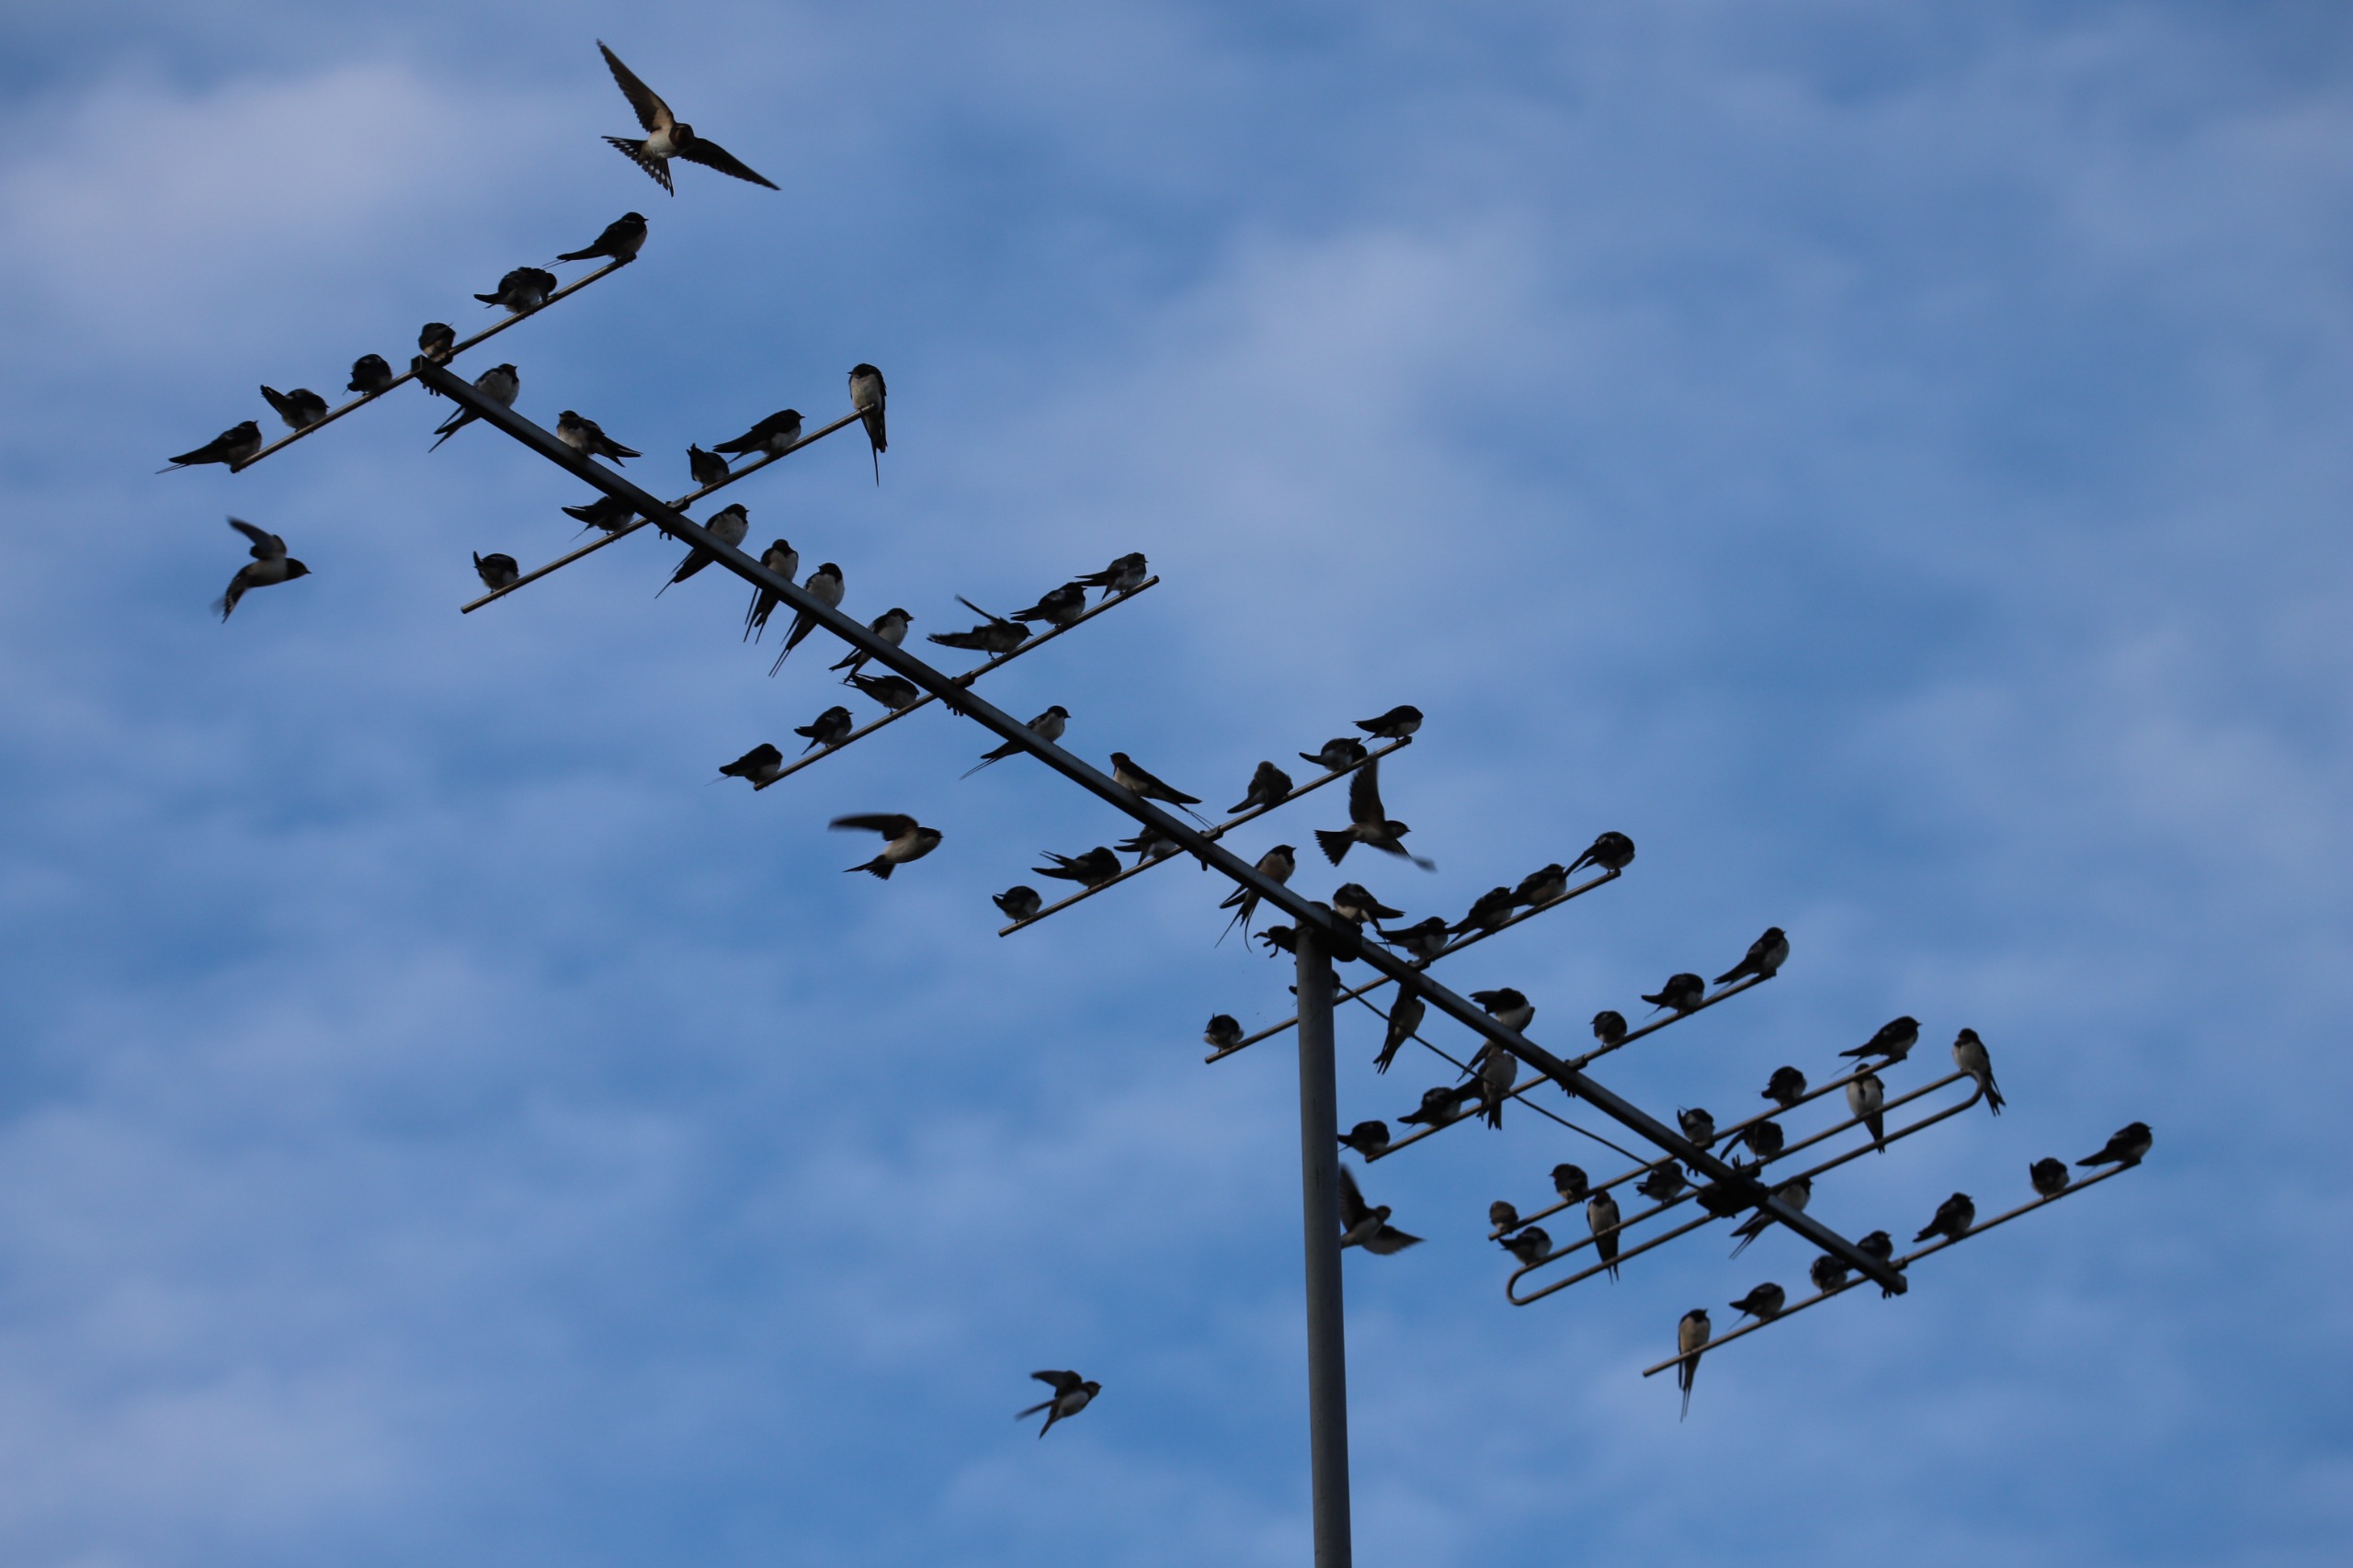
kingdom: Animalia
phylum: Chordata
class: Aves
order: Passeriformes
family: Hirundinidae
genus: Hirundo
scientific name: Hirundo rustica
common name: Landsvale
